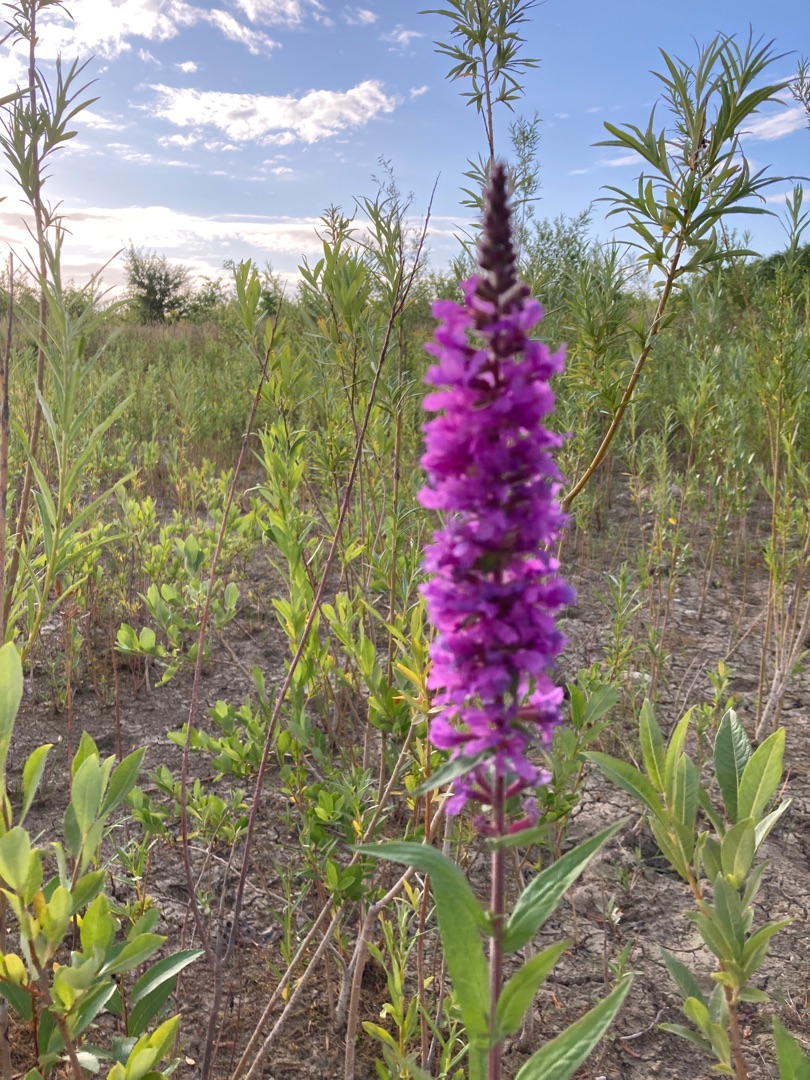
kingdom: Plantae
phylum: Tracheophyta
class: Magnoliopsida
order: Myrtales
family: Lythraceae
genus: Lythrum
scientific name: Lythrum salicaria
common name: Kattehale
